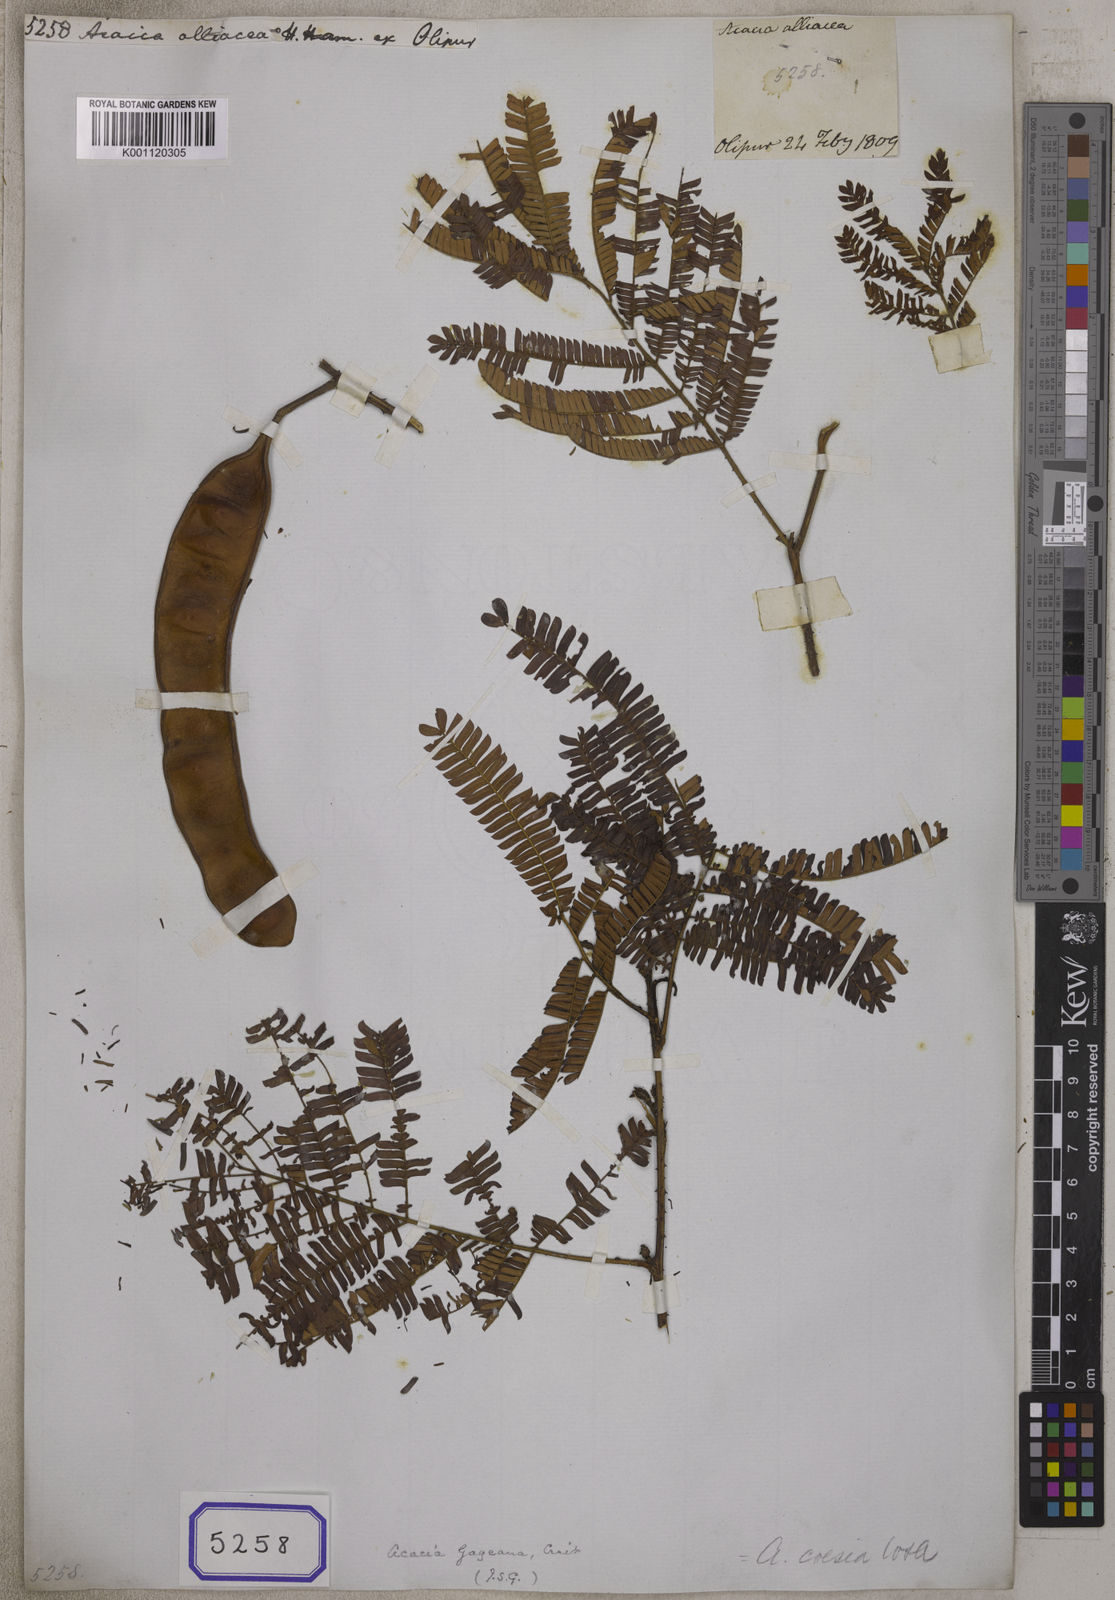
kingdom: Plantae
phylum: Tracheophyta
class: Magnoliopsida
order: Fabales
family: Fabaceae
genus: Acacia
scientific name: Acacia
